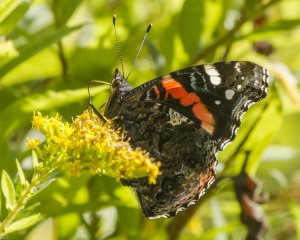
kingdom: Animalia
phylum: Arthropoda
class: Insecta
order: Lepidoptera
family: Nymphalidae
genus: Vanessa
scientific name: Vanessa atalanta
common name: Red Admiral
